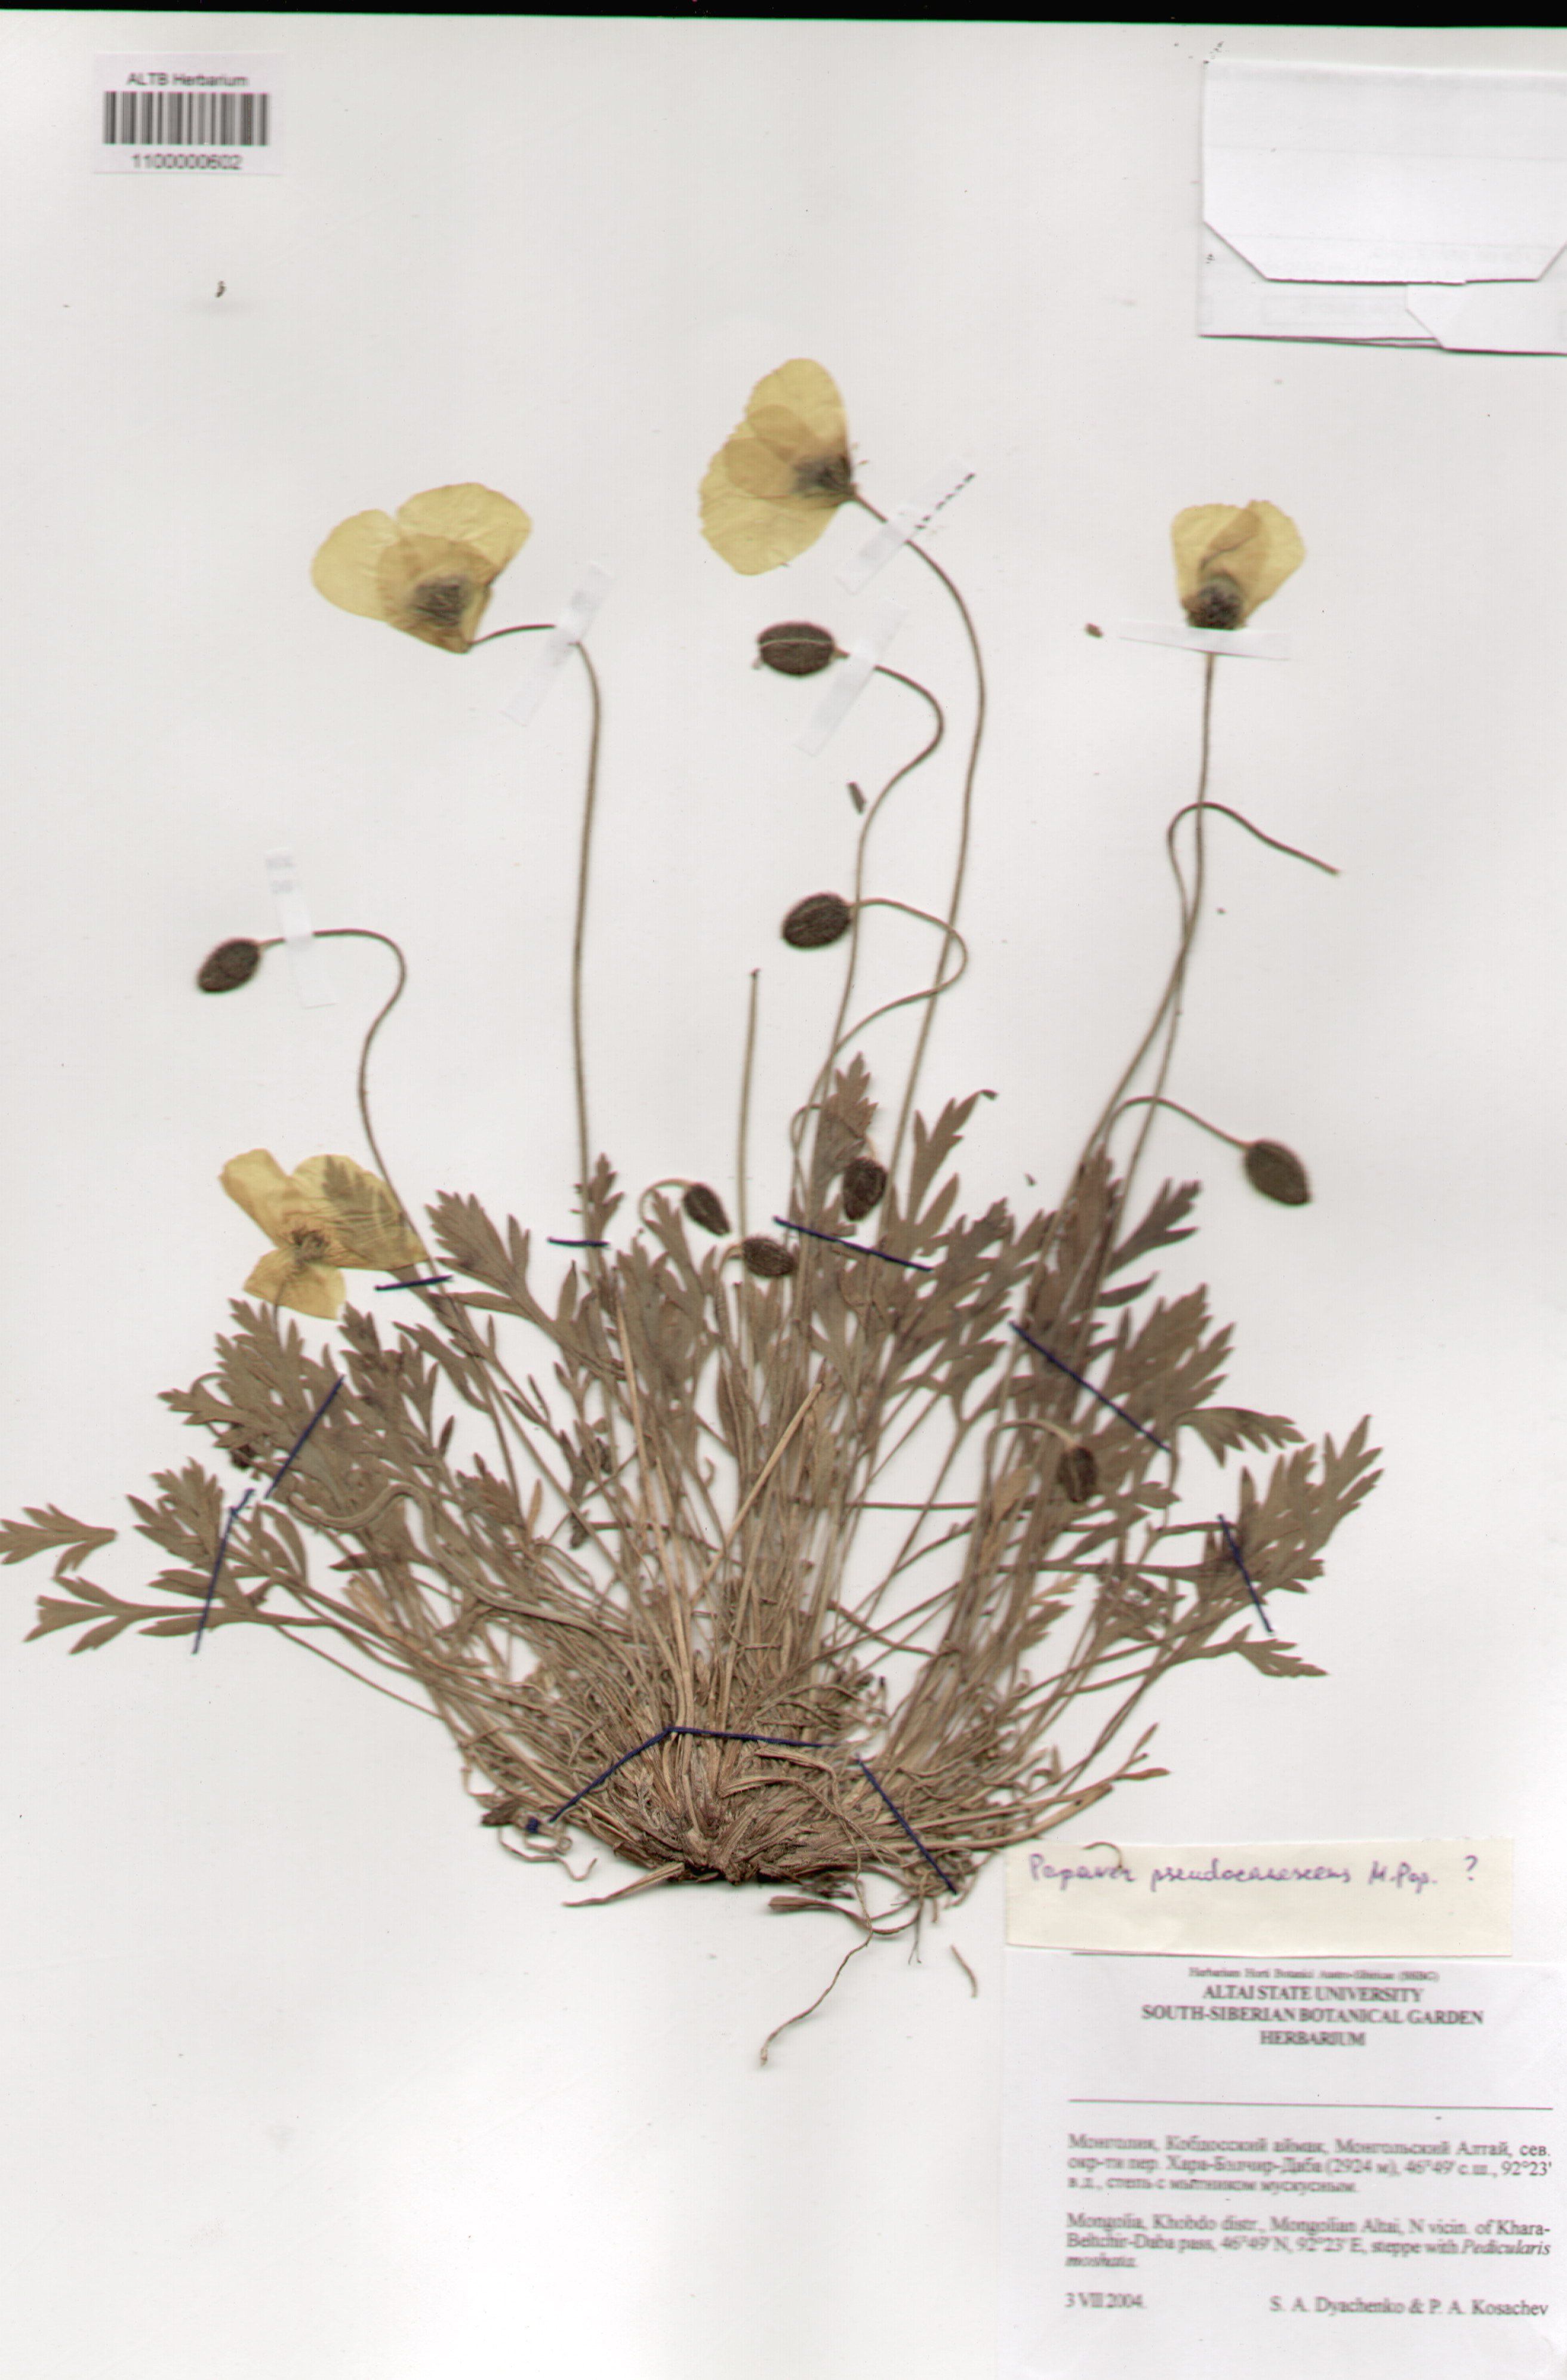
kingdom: Plantae
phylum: Tracheophyta
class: Magnoliopsida
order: Ranunculales
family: Papaveraceae
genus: Papaver
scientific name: Papaver canescens
